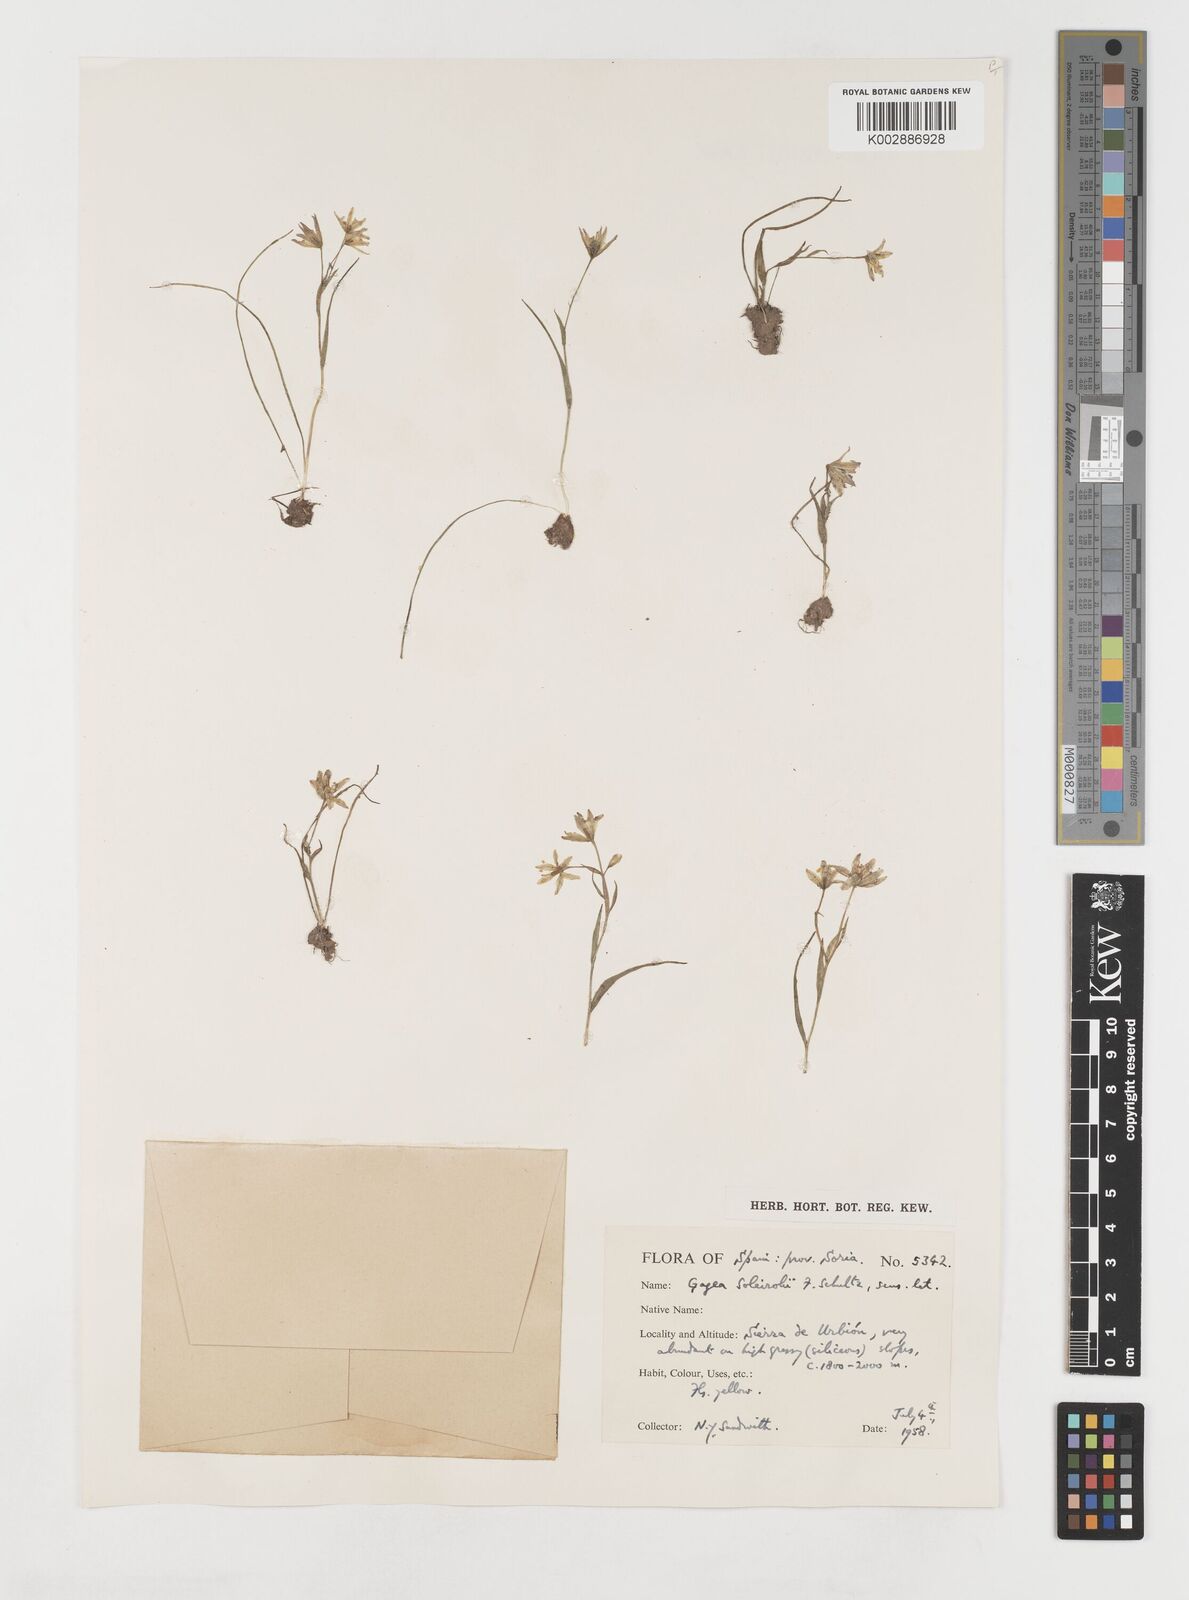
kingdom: Plantae
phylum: Tracheophyta
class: Liliopsida
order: Liliales
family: Liliaceae
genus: Gagea
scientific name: Gagea soleirolii
